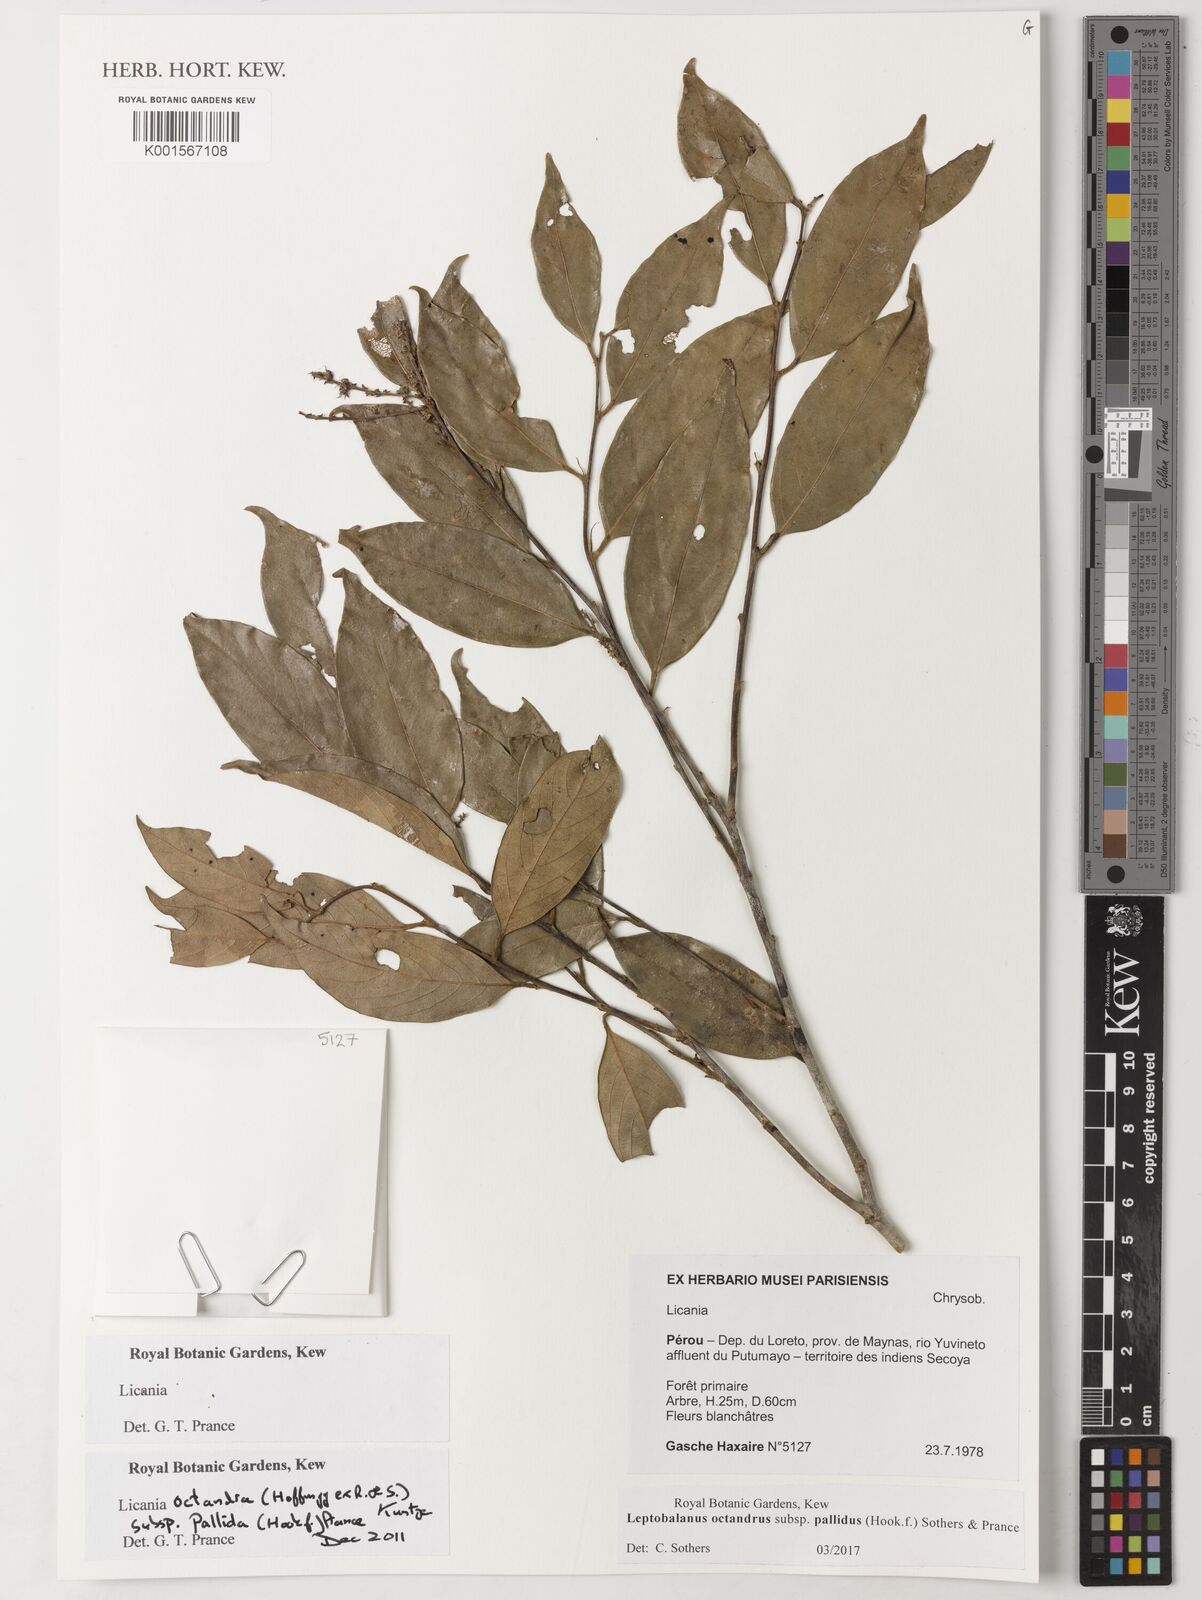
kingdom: Plantae
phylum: Tracheophyta
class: Magnoliopsida
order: Malpighiales
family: Chrysobalanaceae
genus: Leptobalanus
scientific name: Leptobalanus octandrus
